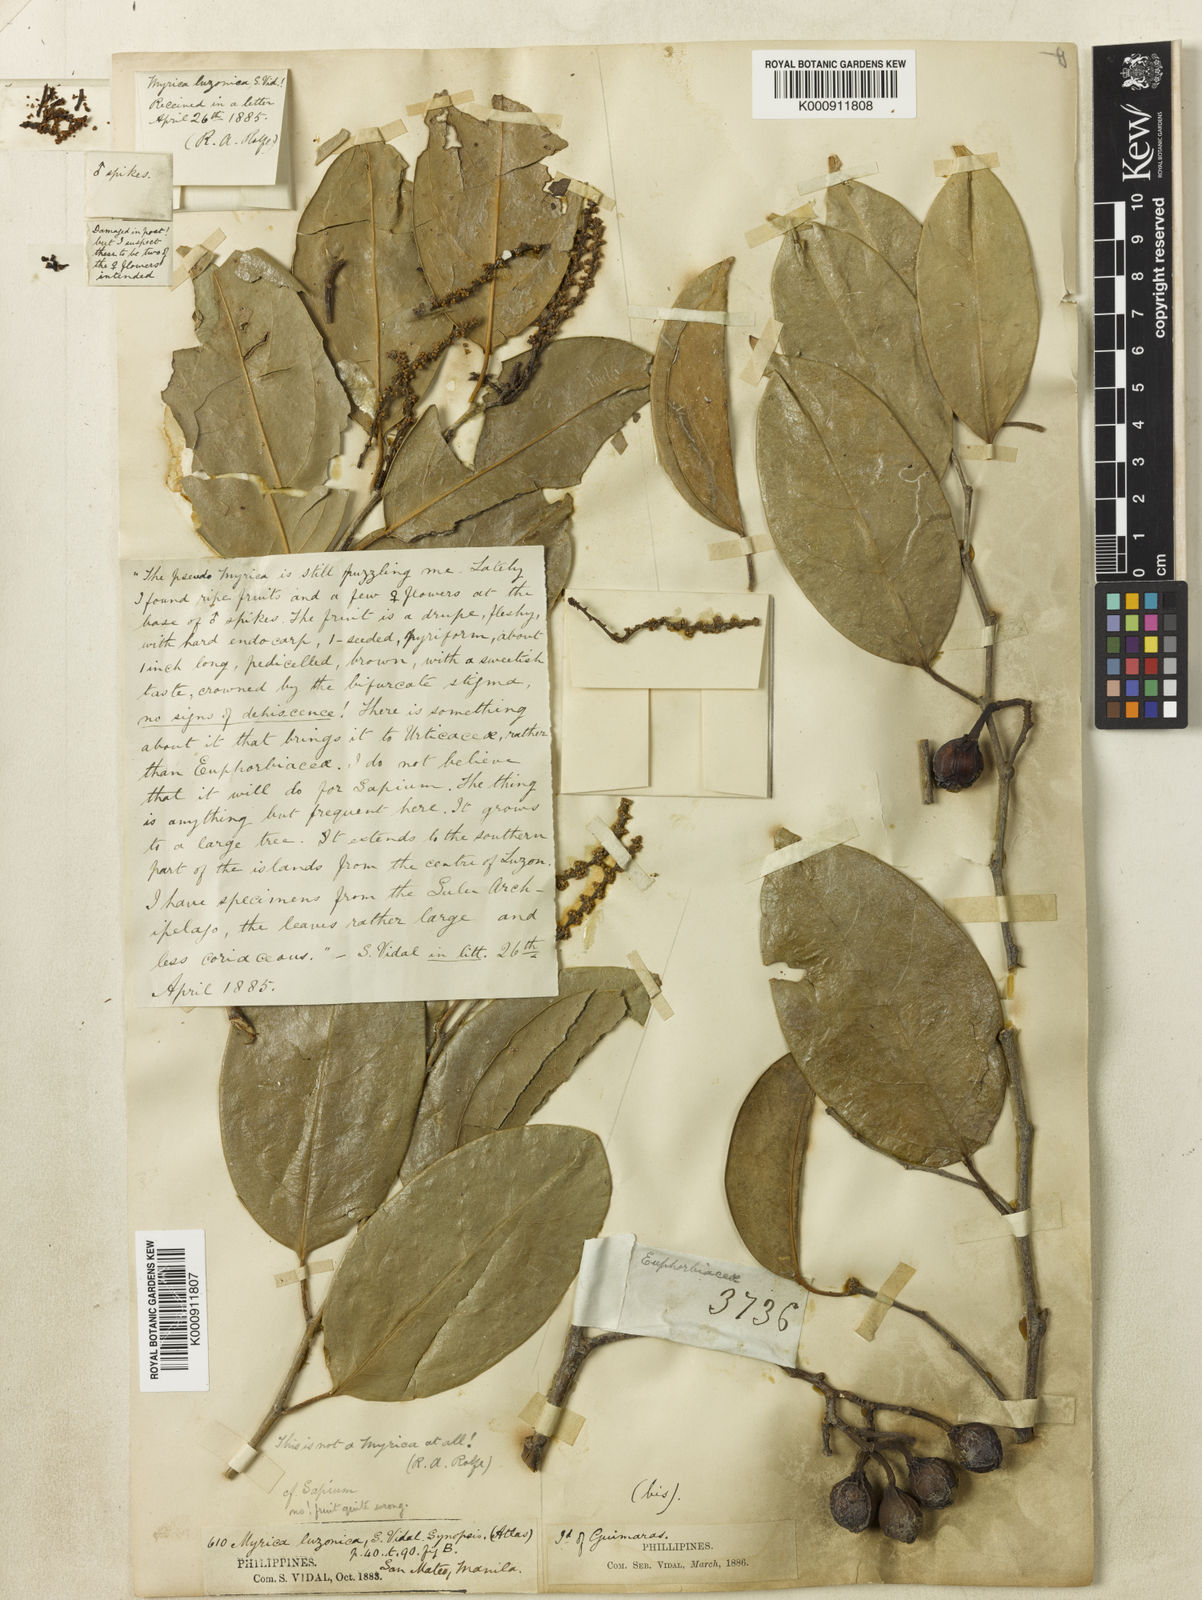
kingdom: Plantae
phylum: Tracheophyta
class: Magnoliopsida
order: Malpighiales
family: Euphorbiaceae
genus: Balakata
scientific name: Balakata luzonica
